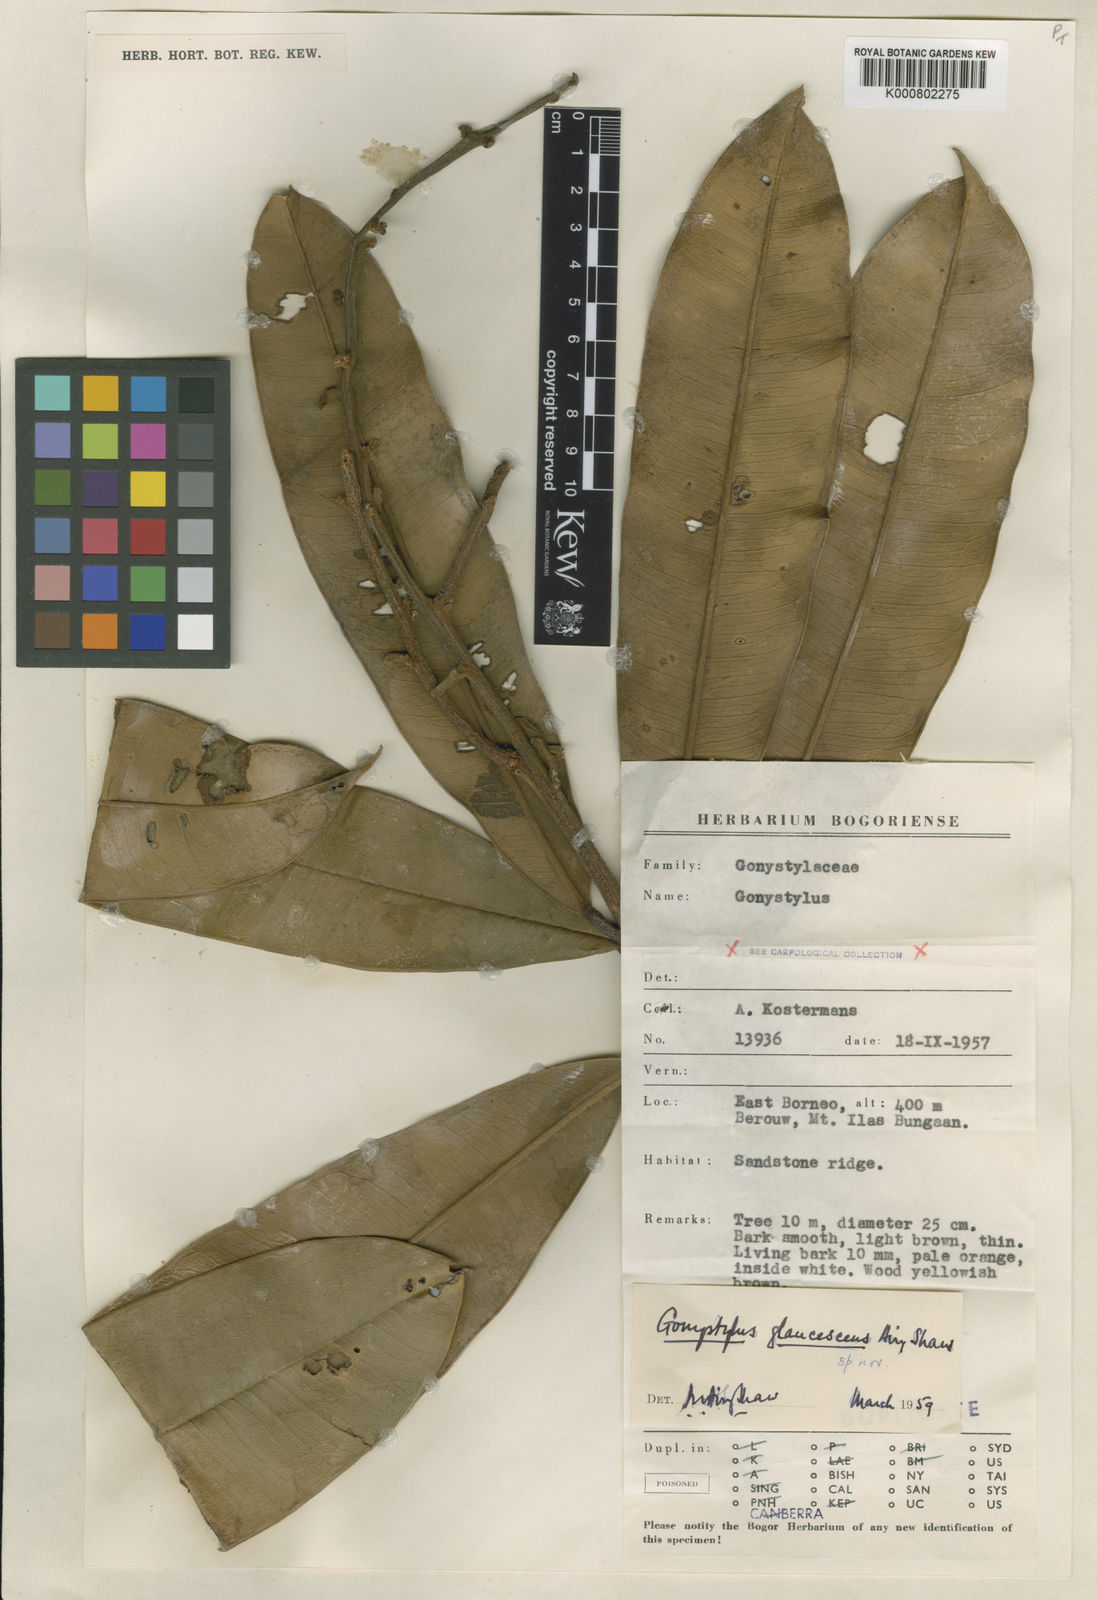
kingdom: Plantae
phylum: Tracheophyta
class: Magnoliopsida
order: Malvales
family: Thymelaeaceae
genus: Gonystylus
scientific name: Gonystylus glaucescens
